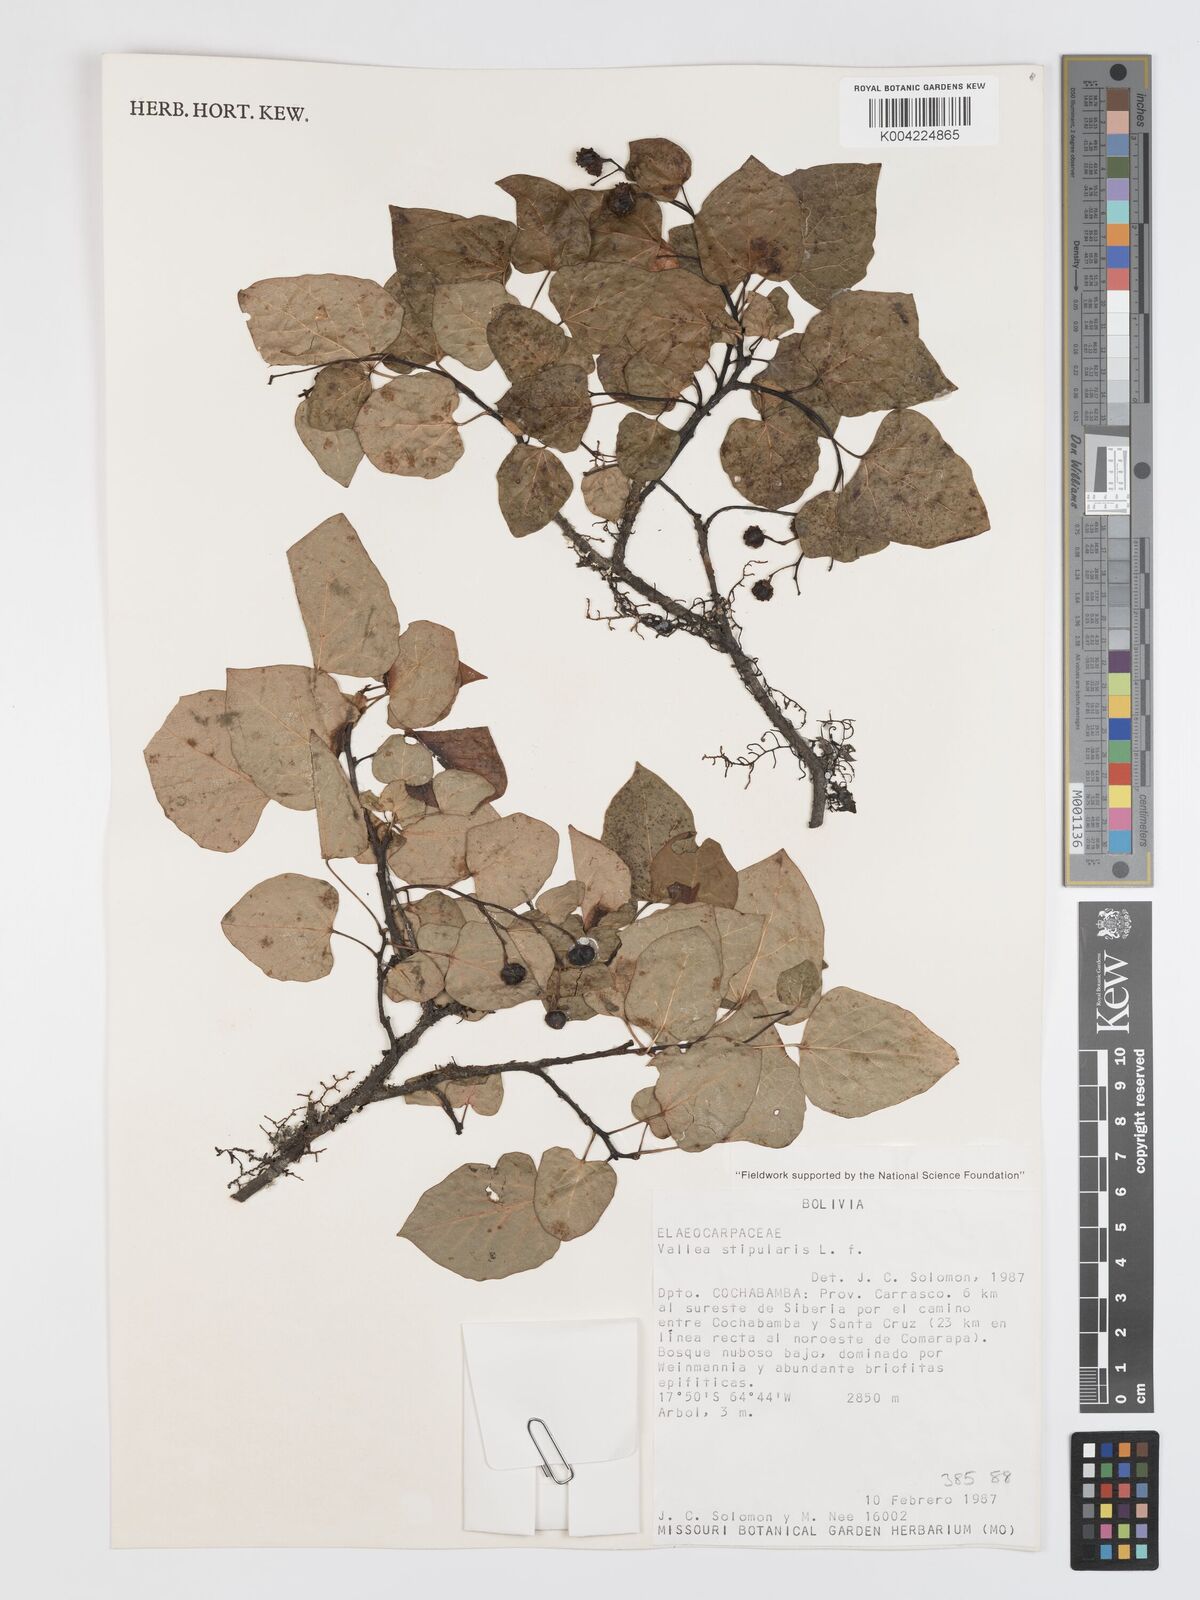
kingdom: Plantae
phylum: Tracheophyta
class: Magnoliopsida
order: Oxalidales
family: Elaeocarpaceae
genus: Vallea
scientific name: Vallea stipularis
